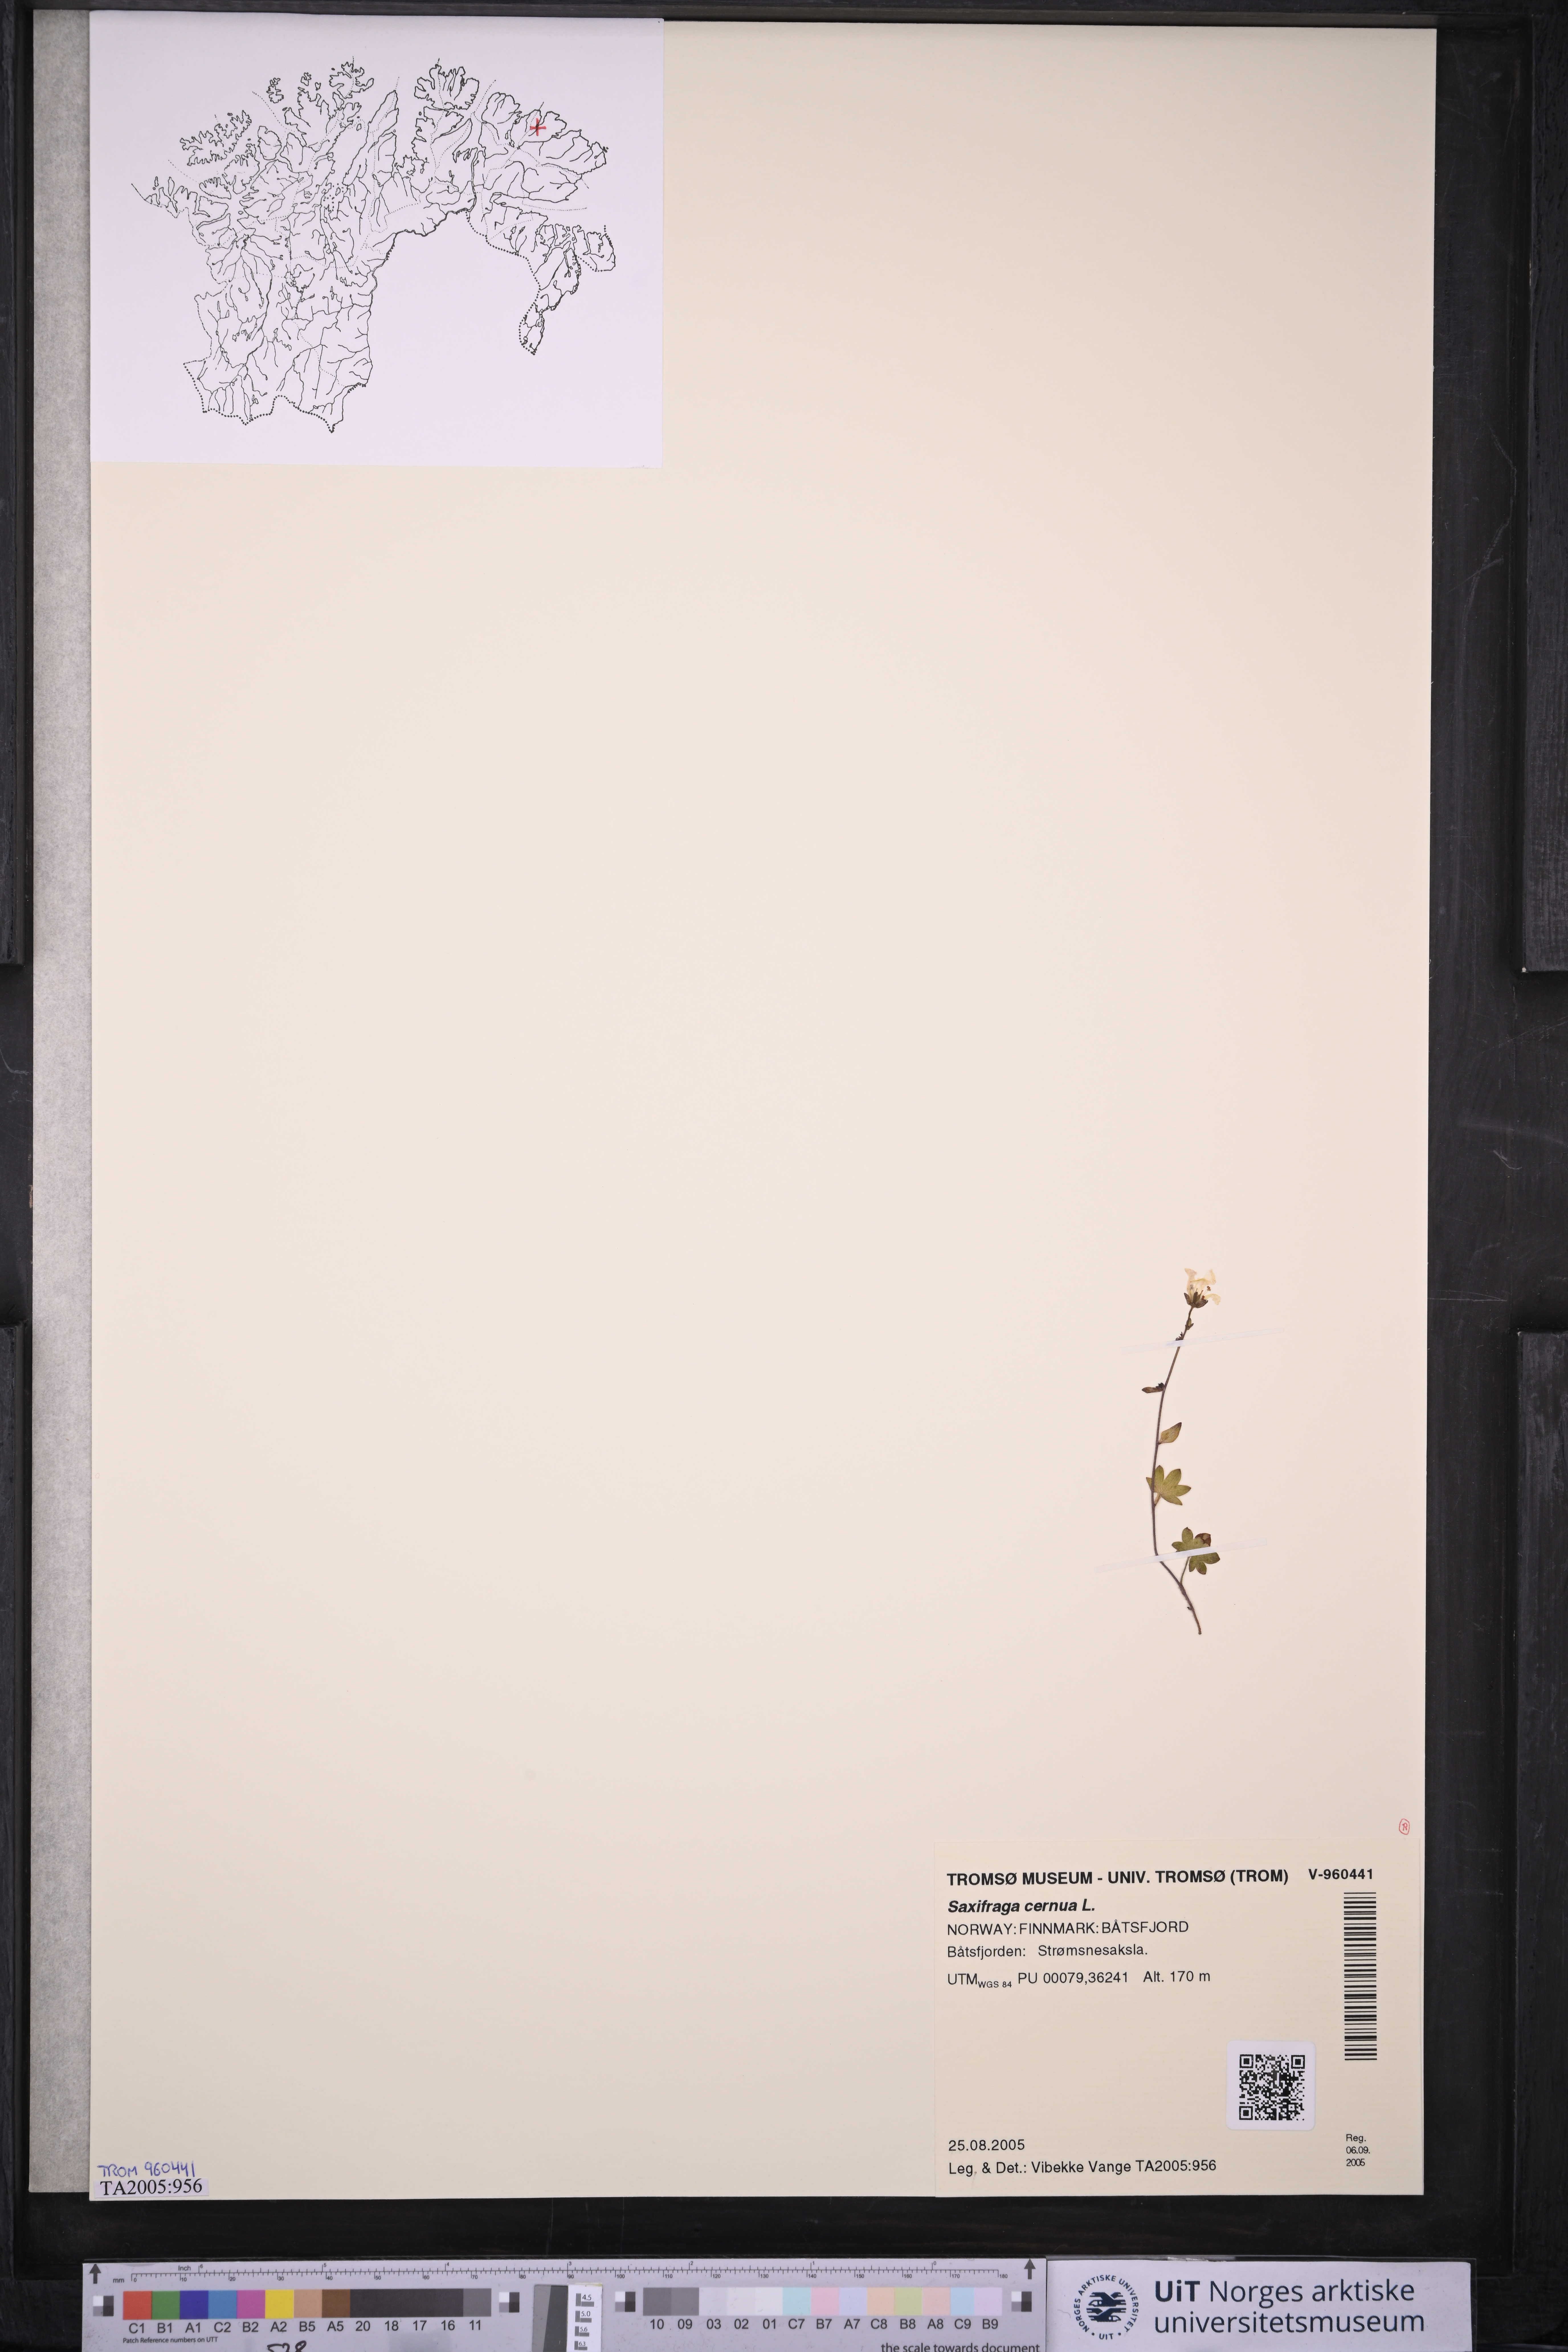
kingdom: Plantae
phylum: Tracheophyta
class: Magnoliopsida
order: Saxifragales
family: Saxifragaceae
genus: Saxifraga
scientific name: Saxifraga cernua
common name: Drooping saxifrage
